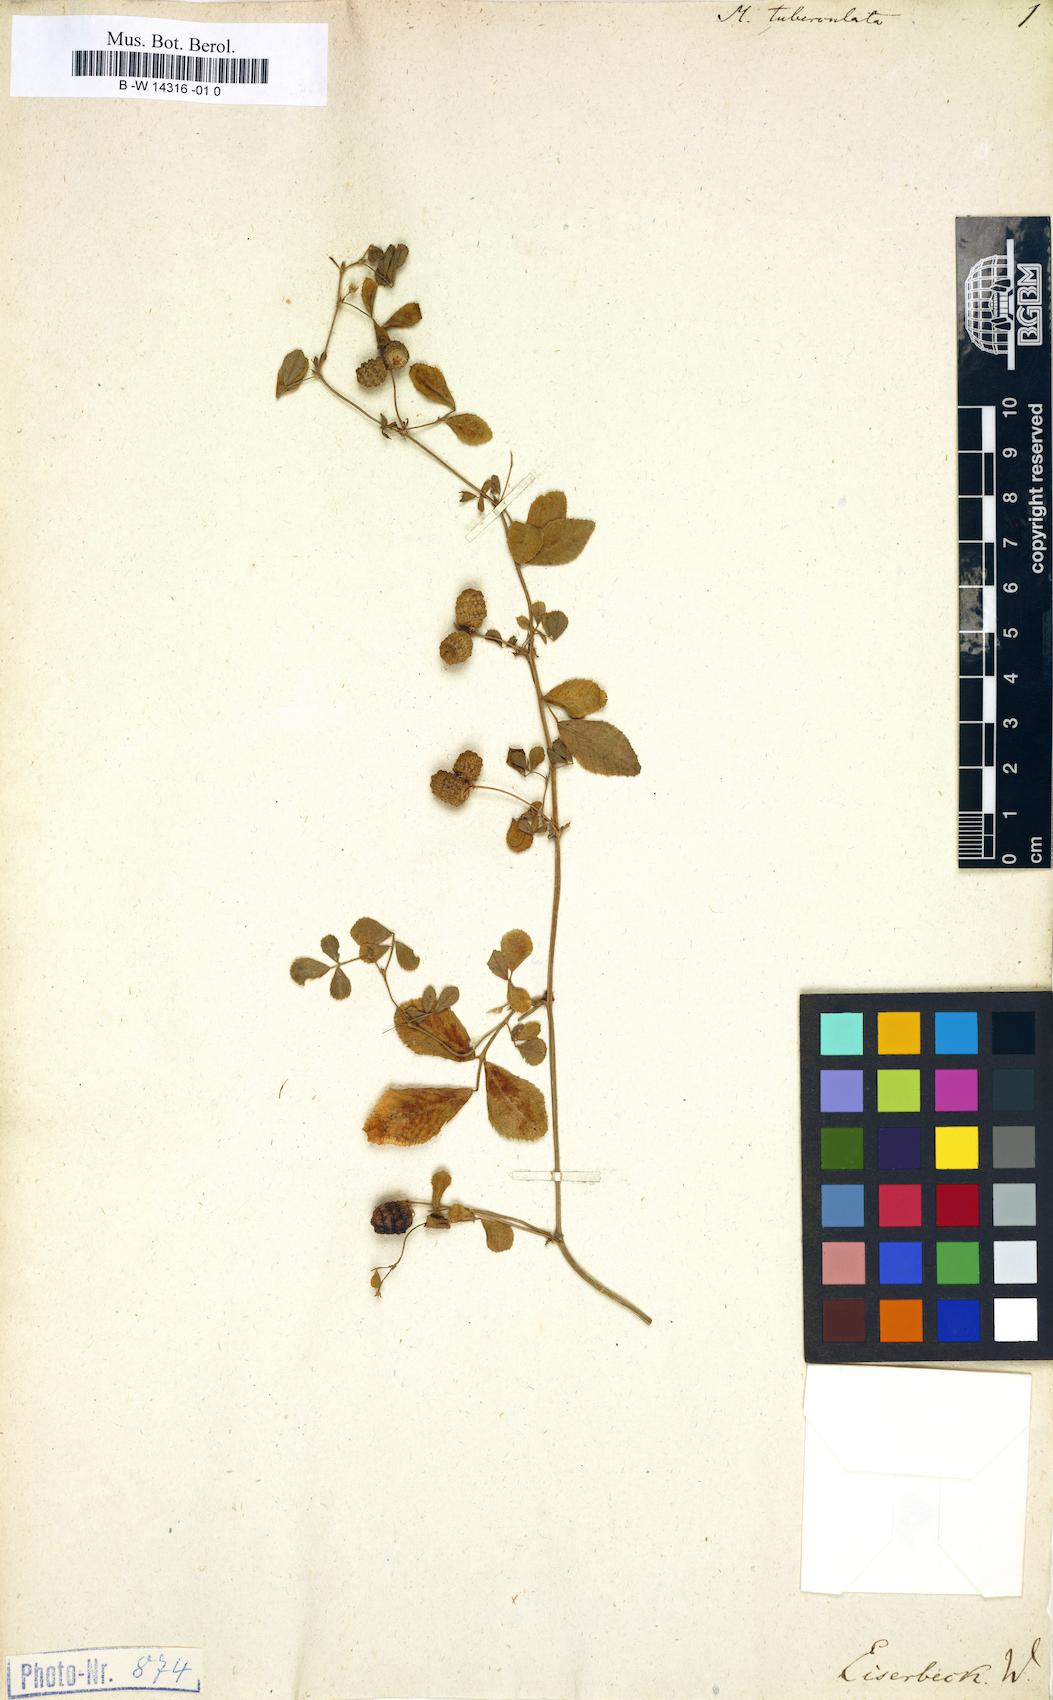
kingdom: Plantae
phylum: Tracheophyta
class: Magnoliopsida
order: Fabales
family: Fabaceae
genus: Medicago
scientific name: Medicago turbinata
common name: Southern medick
